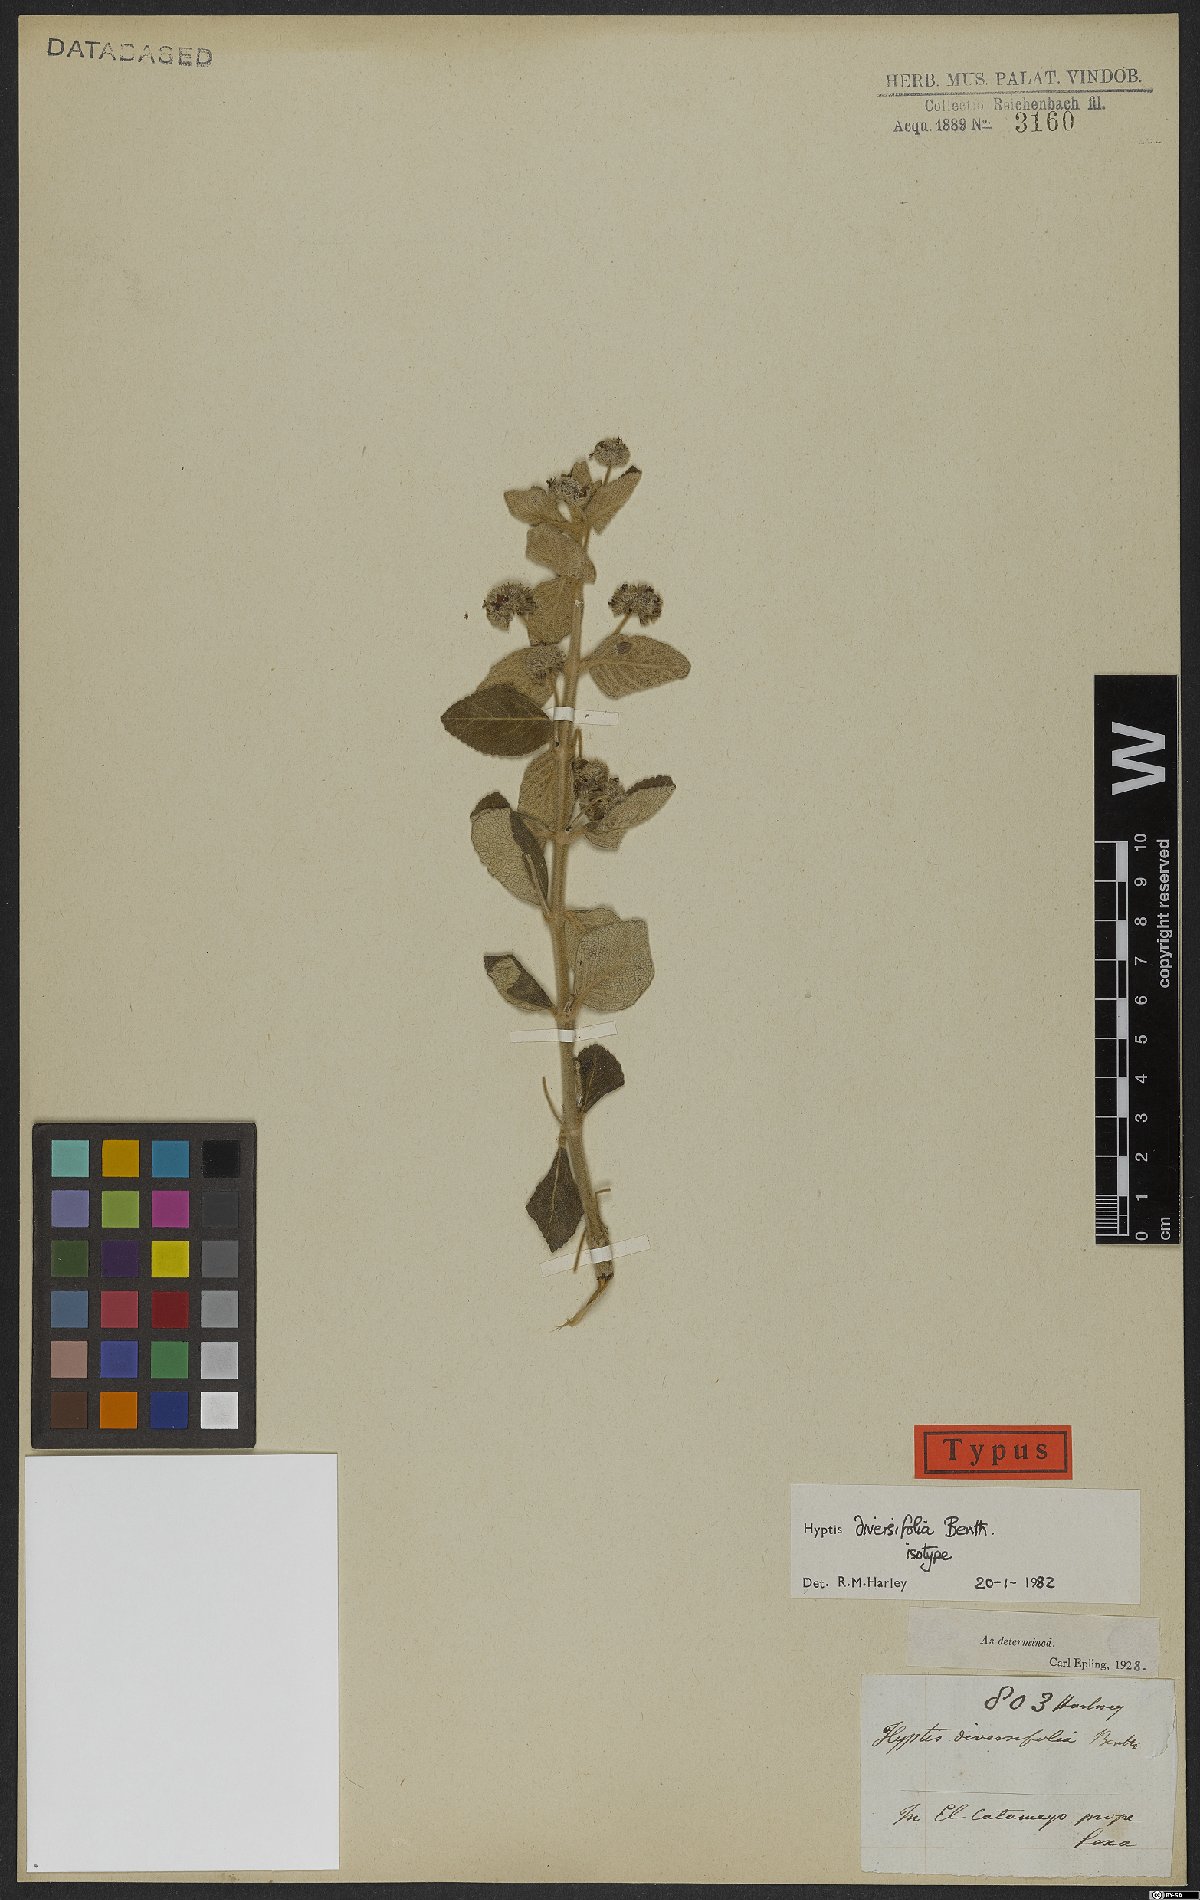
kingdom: Plantae
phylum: Tracheophyta
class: Magnoliopsida
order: Lamiales
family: Lamiaceae
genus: Mesosphaerum
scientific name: Mesosphaerum diversifolium
